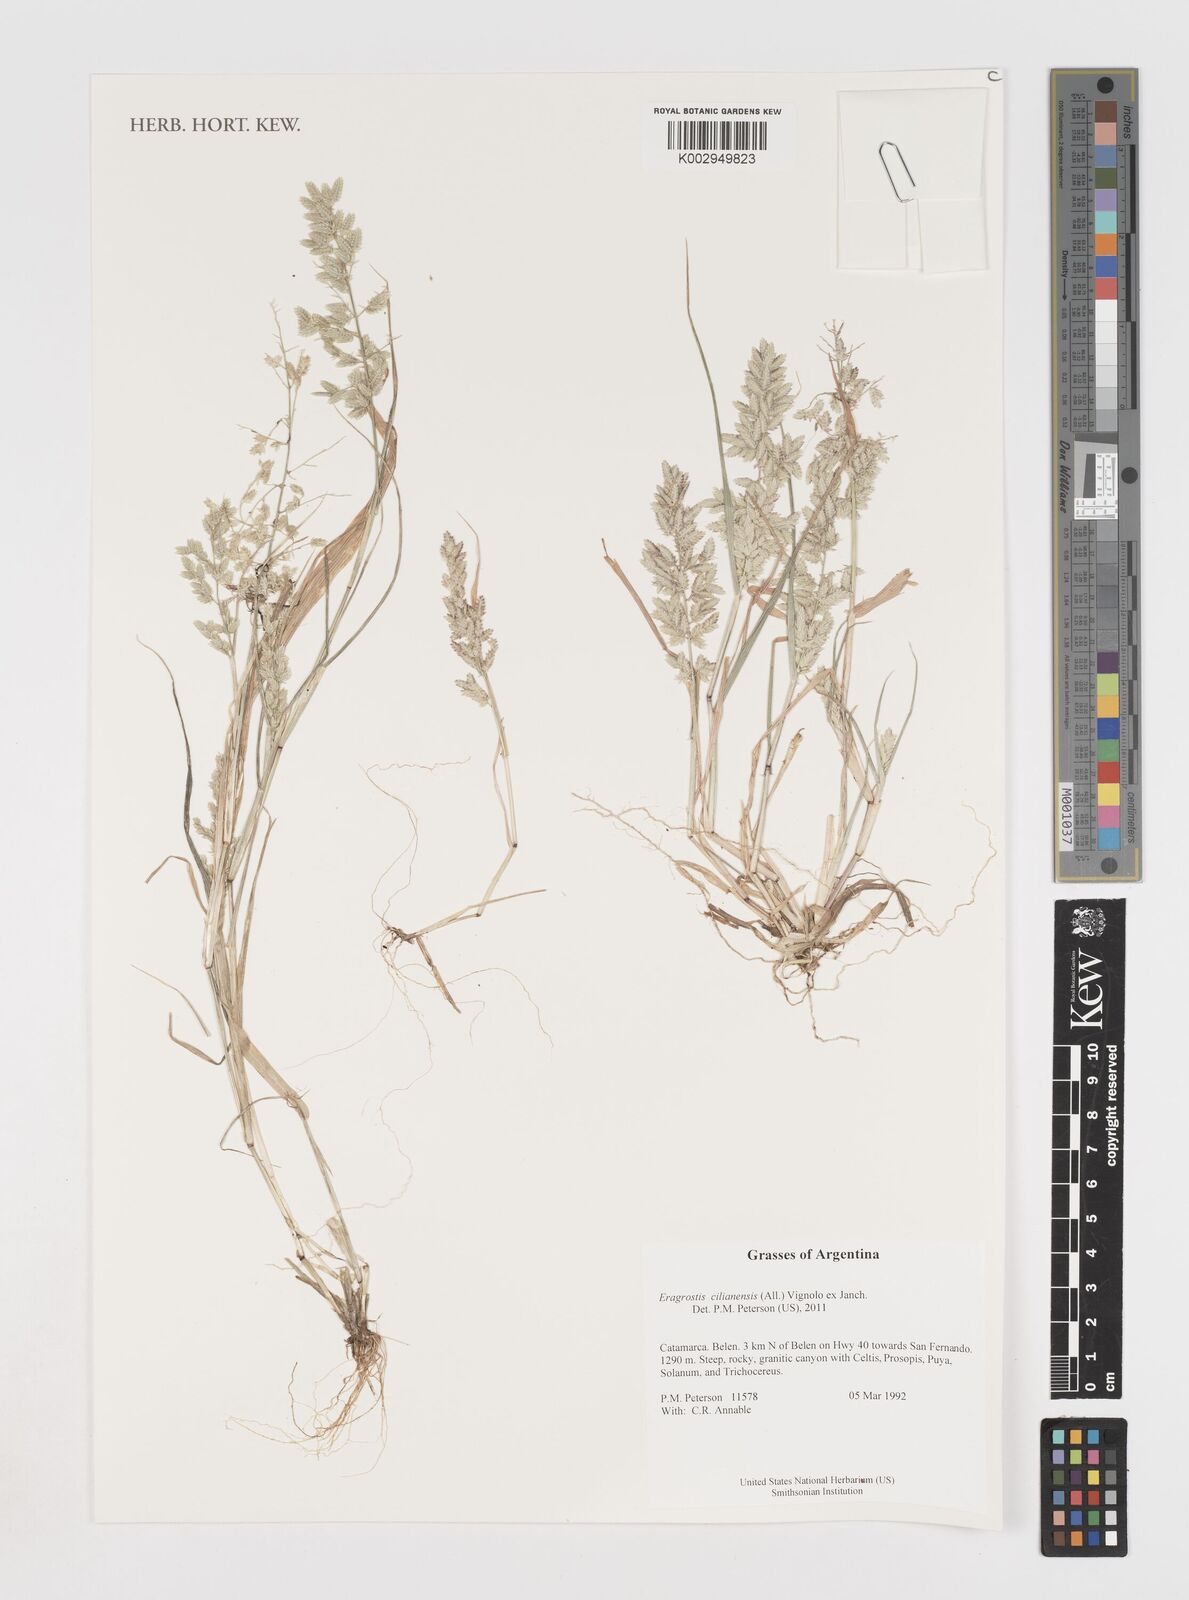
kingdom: Plantae
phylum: Tracheophyta
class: Liliopsida
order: Poales
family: Poaceae
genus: Eragrostis
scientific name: Eragrostis cilianensis
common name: Stinkgrass
